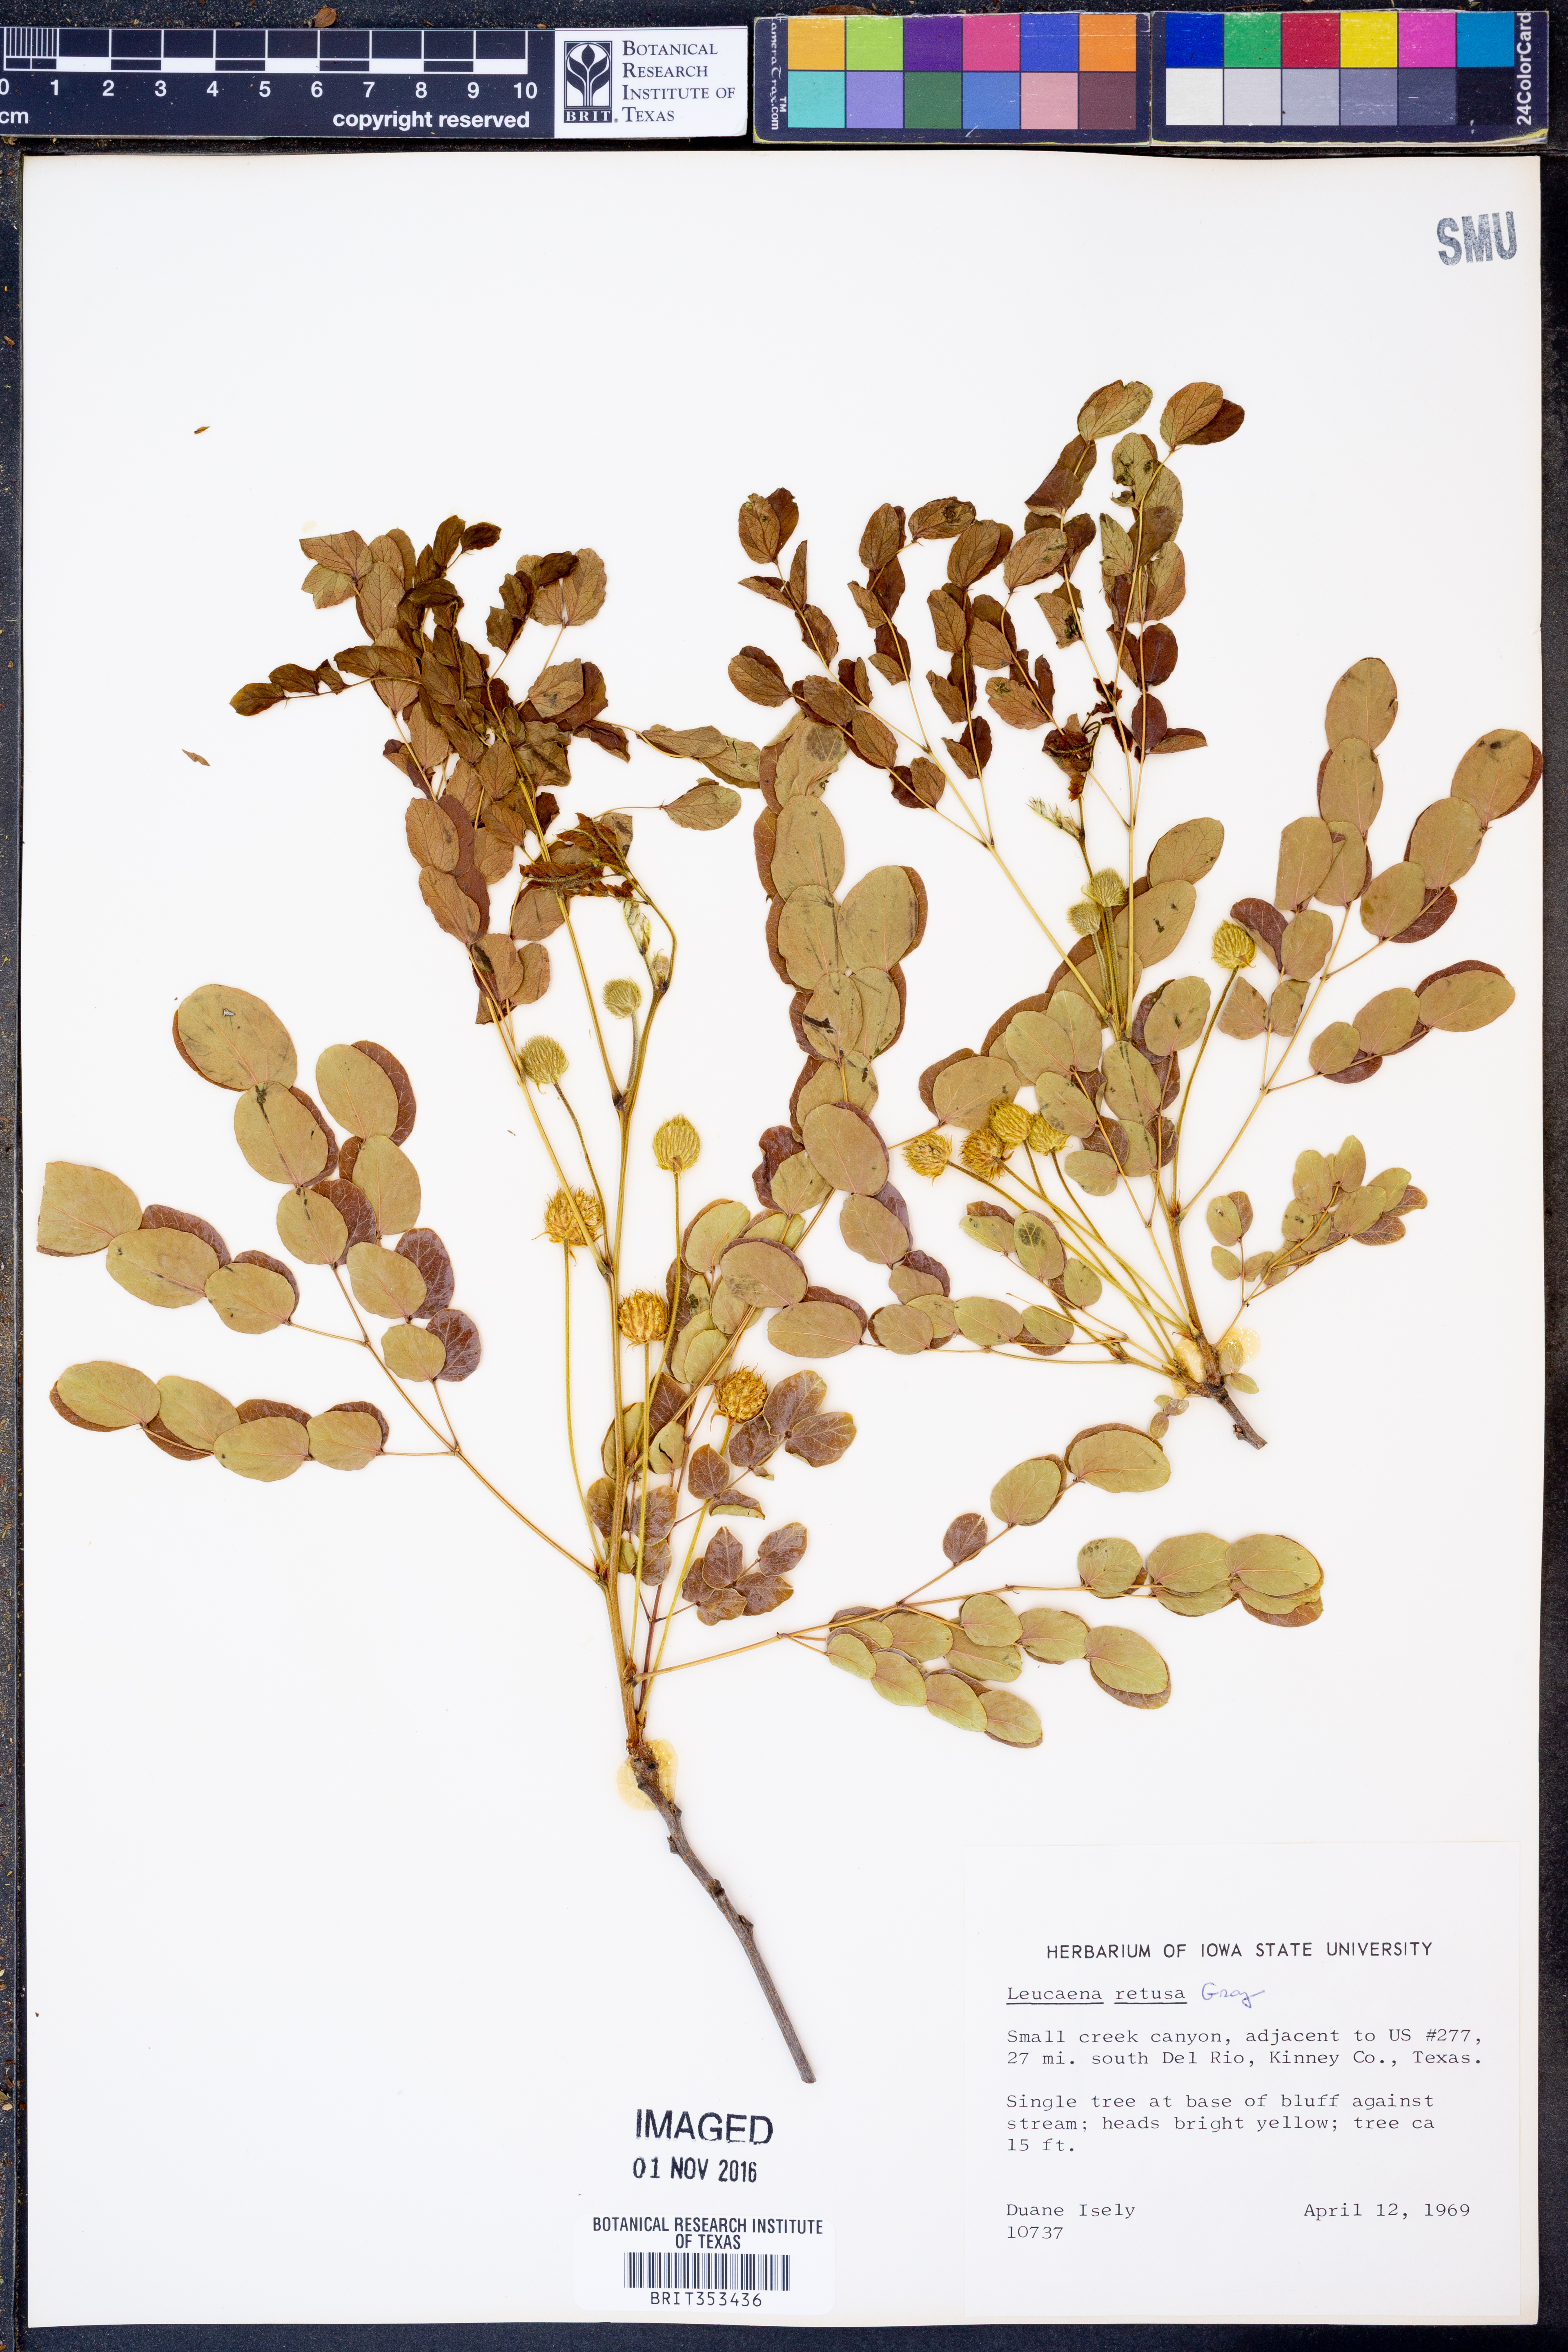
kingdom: Plantae
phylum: Tracheophyta
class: Magnoliopsida
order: Fabales
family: Fabaceae
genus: Leucaena
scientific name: Leucaena retusa
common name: Littleleaf leadtree
